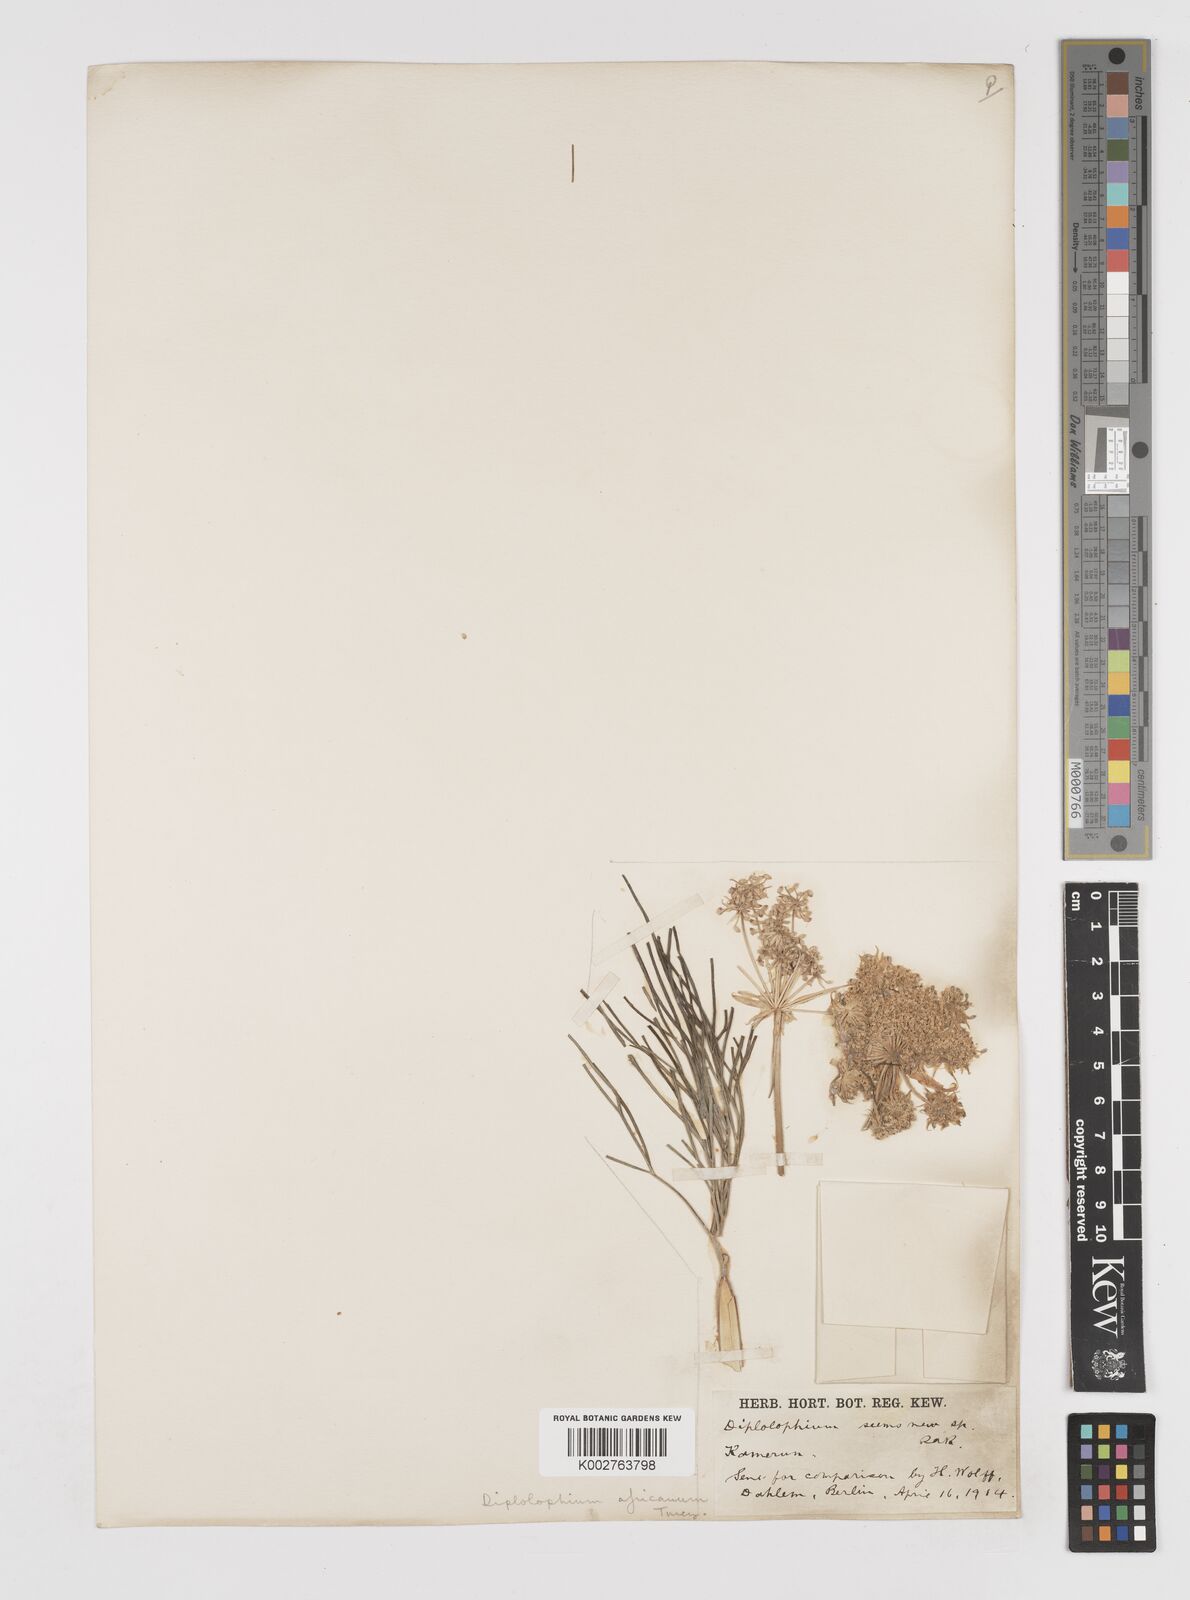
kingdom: Plantae
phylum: Tracheophyta
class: Magnoliopsida
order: Apiales
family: Apiaceae
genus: Diplolophium
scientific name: Diplolophium africanum
